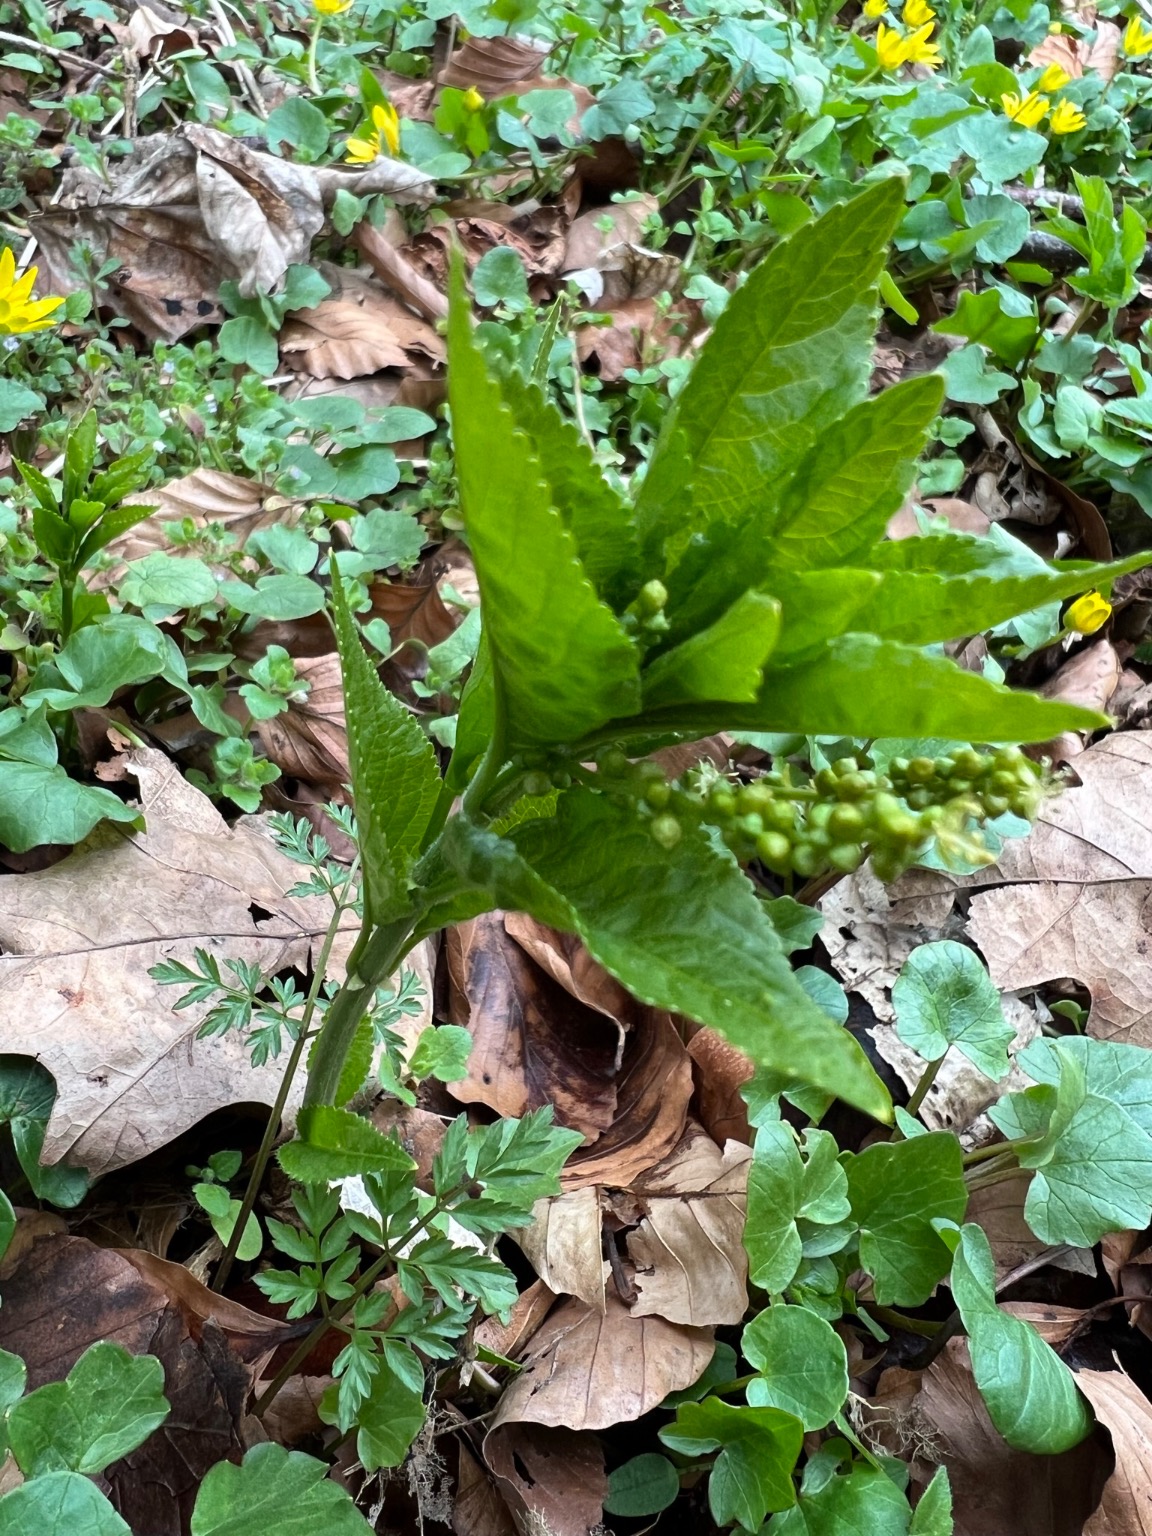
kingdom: Plantae
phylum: Tracheophyta
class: Magnoliopsida
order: Malpighiales
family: Euphorbiaceae
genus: Mercurialis
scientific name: Mercurialis perennis
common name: Almindelig bingelurt
